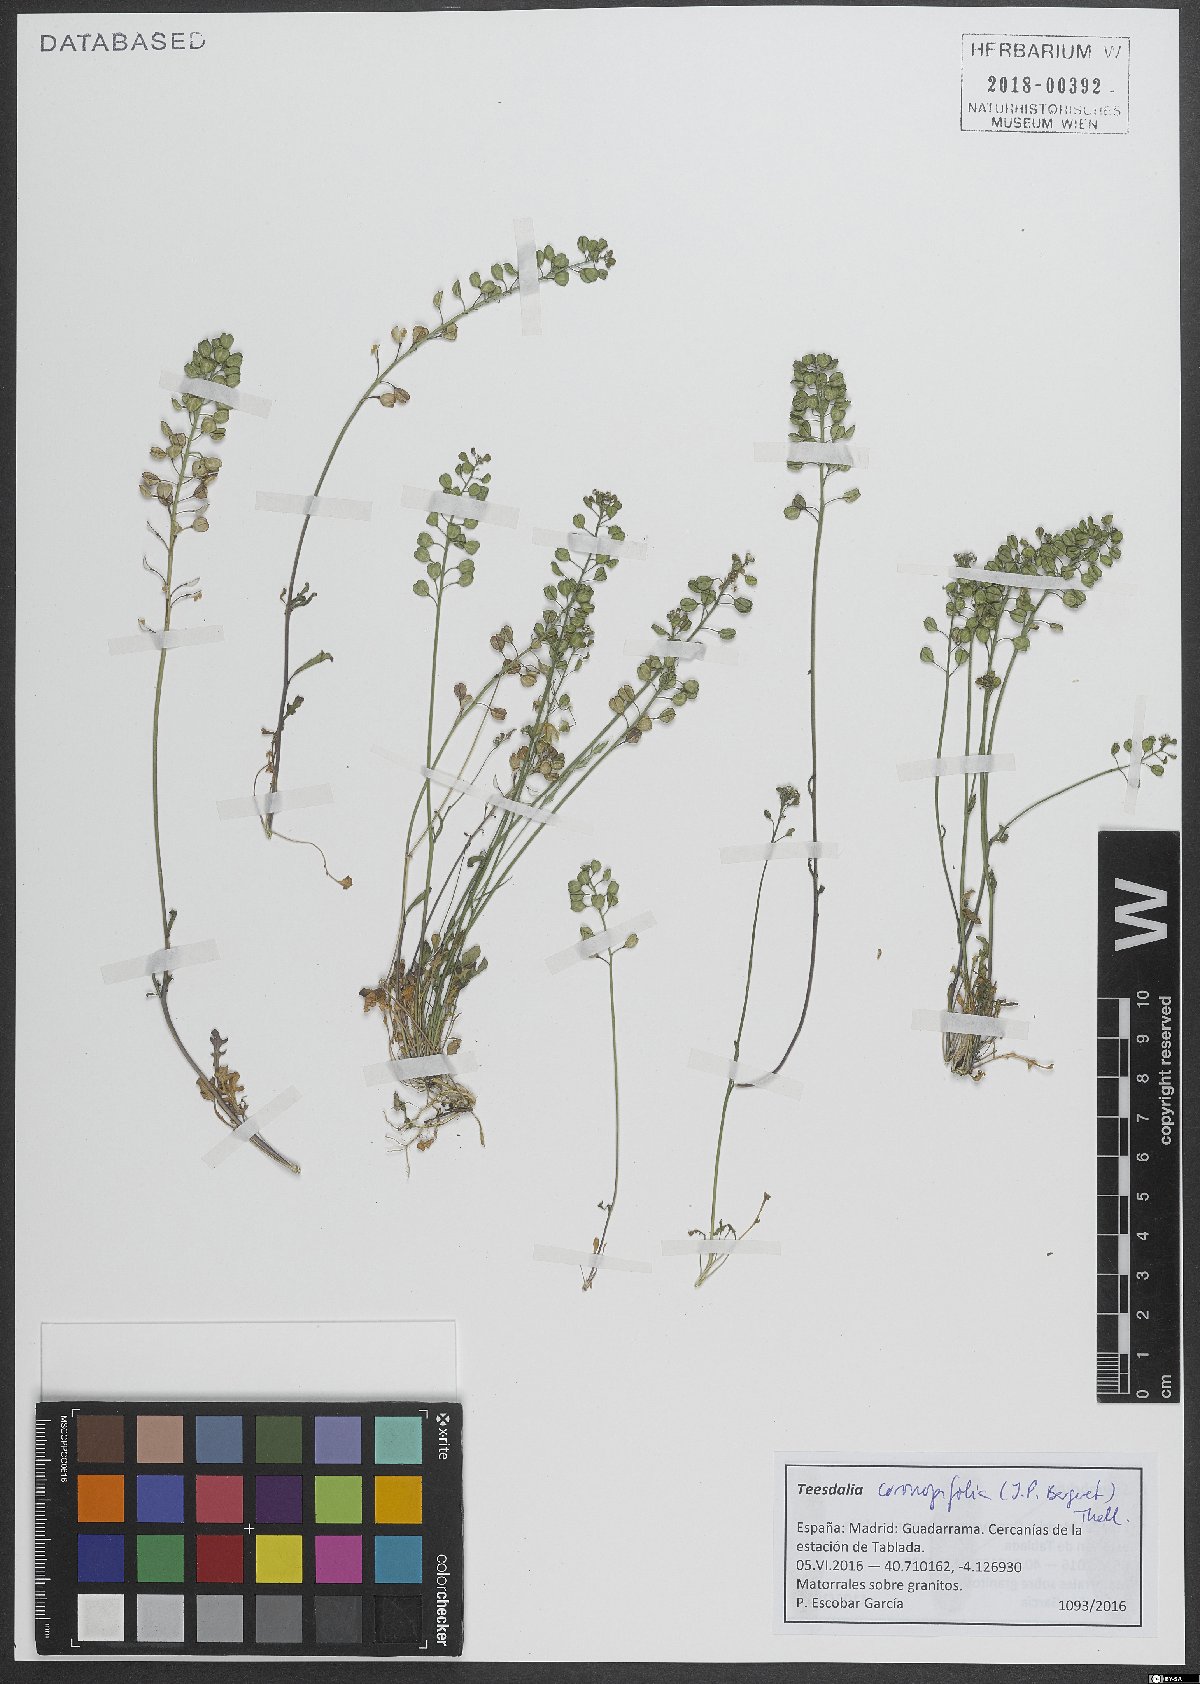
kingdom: Plantae
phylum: Tracheophyta
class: Magnoliopsida
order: Brassicales
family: Brassicaceae
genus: Teesdalia
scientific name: Teesdalia coronopifolia
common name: Lesser shepherdscress
